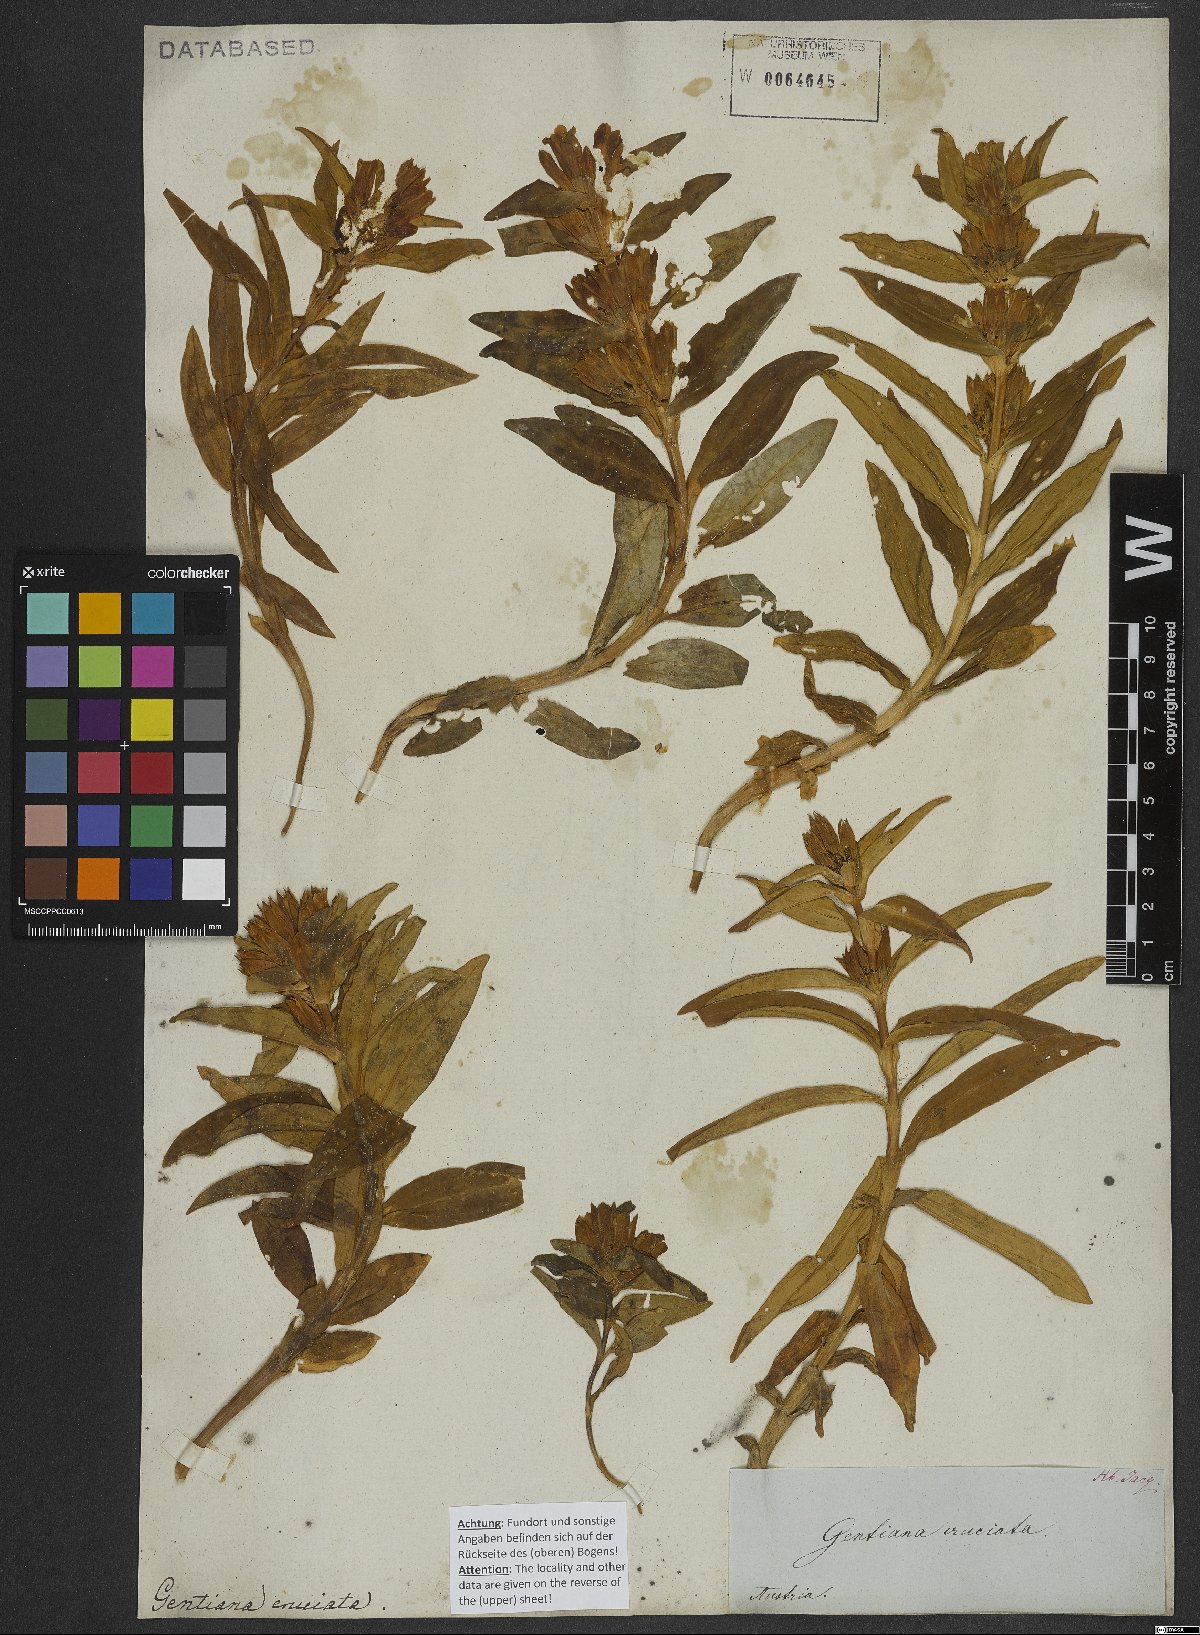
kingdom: Plantae
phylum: Tracheophyta
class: Magnoliopsida
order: Gentianales
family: Gentianaceae
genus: Gentiana
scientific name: Gentiana cruciata
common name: Cross gentian
